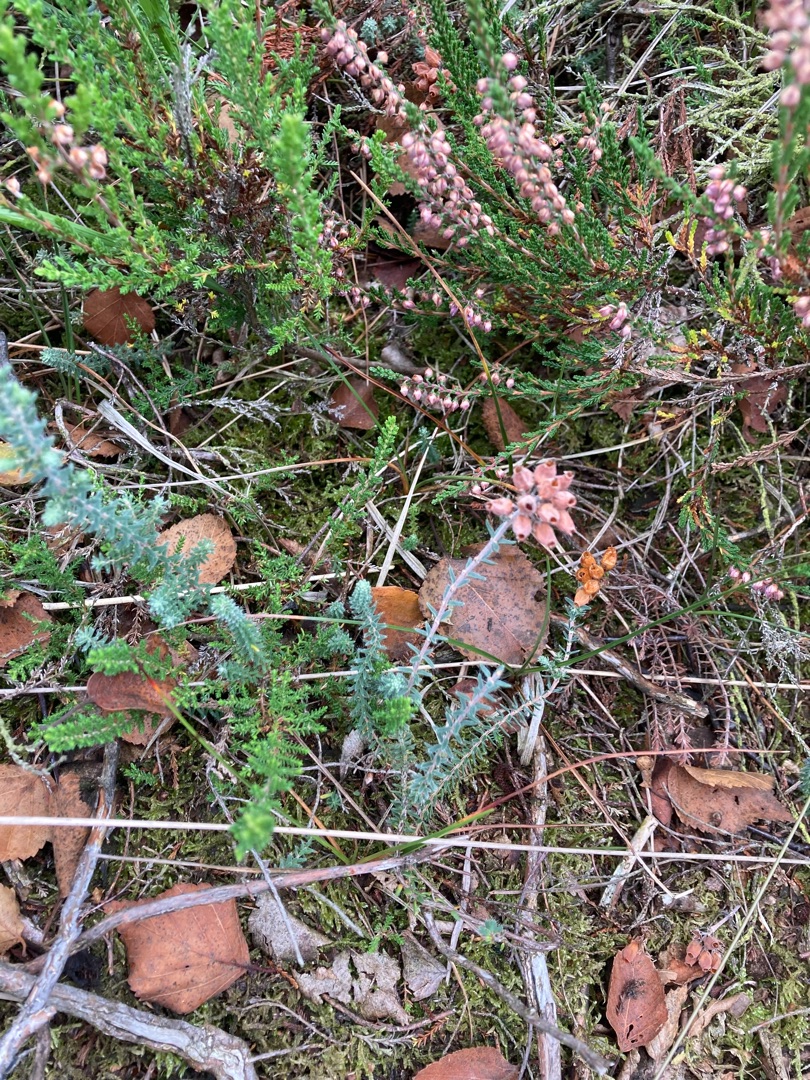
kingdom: Plantae
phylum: Tracheophyta
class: Magnoliopsida
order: Ericales
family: Ericaceae
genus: Erica
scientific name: Erica tetralix
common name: Klokkelyng
